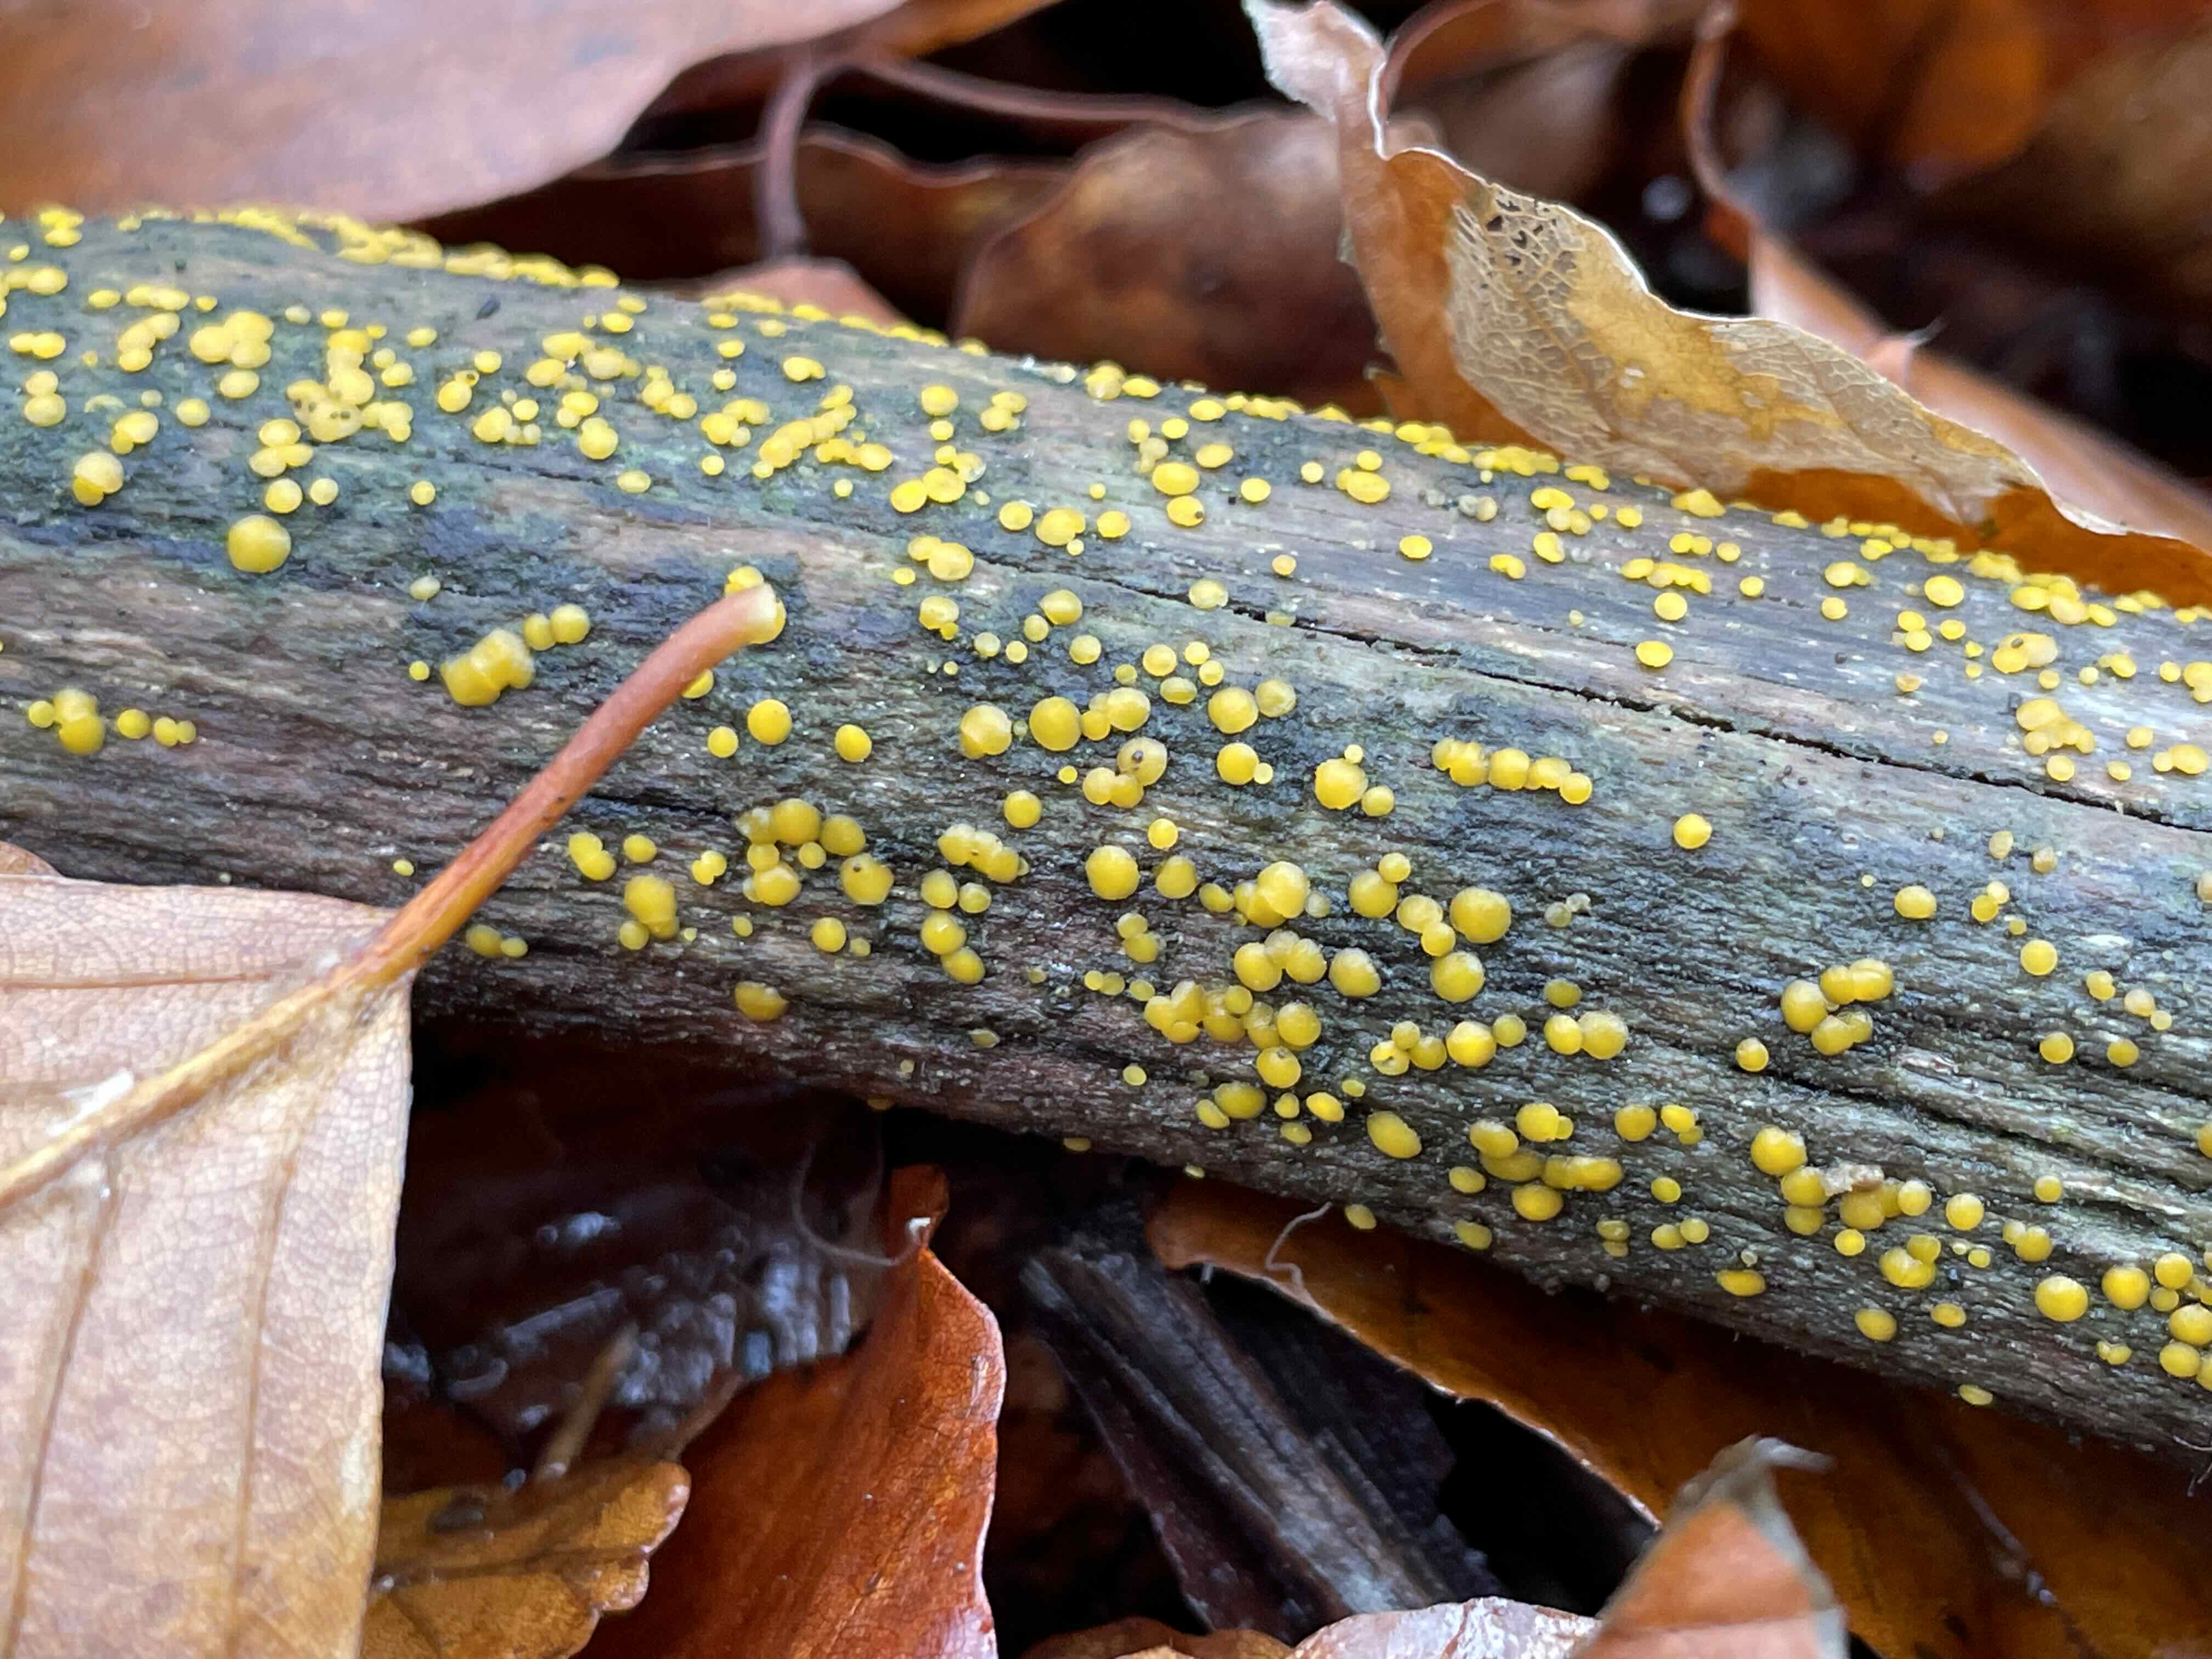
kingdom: Fungi
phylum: Ascomycota
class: Leotiomycetes
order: Helotiales
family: Pezizellaceae
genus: Calycina
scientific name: Calycina citrina
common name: almindelig gulskive
